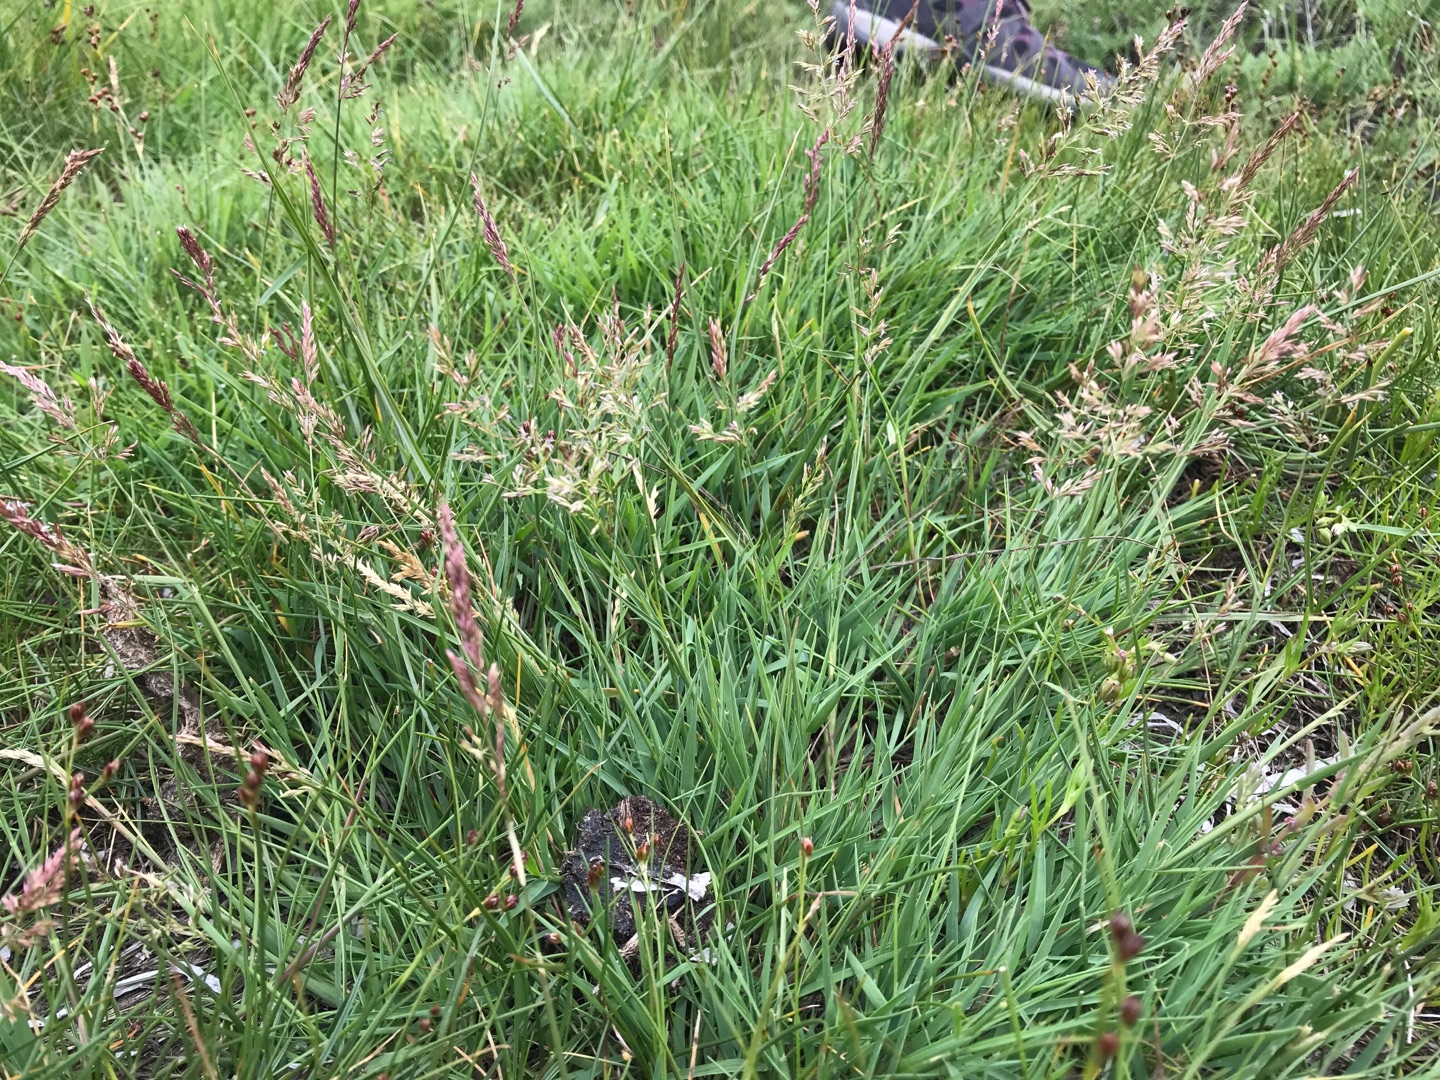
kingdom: Plantae
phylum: Tracheophyta
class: Liliopsida
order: Poales
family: Poaceae
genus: Agrostis
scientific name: Agrostis stolonifera
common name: Kryb-hvene
